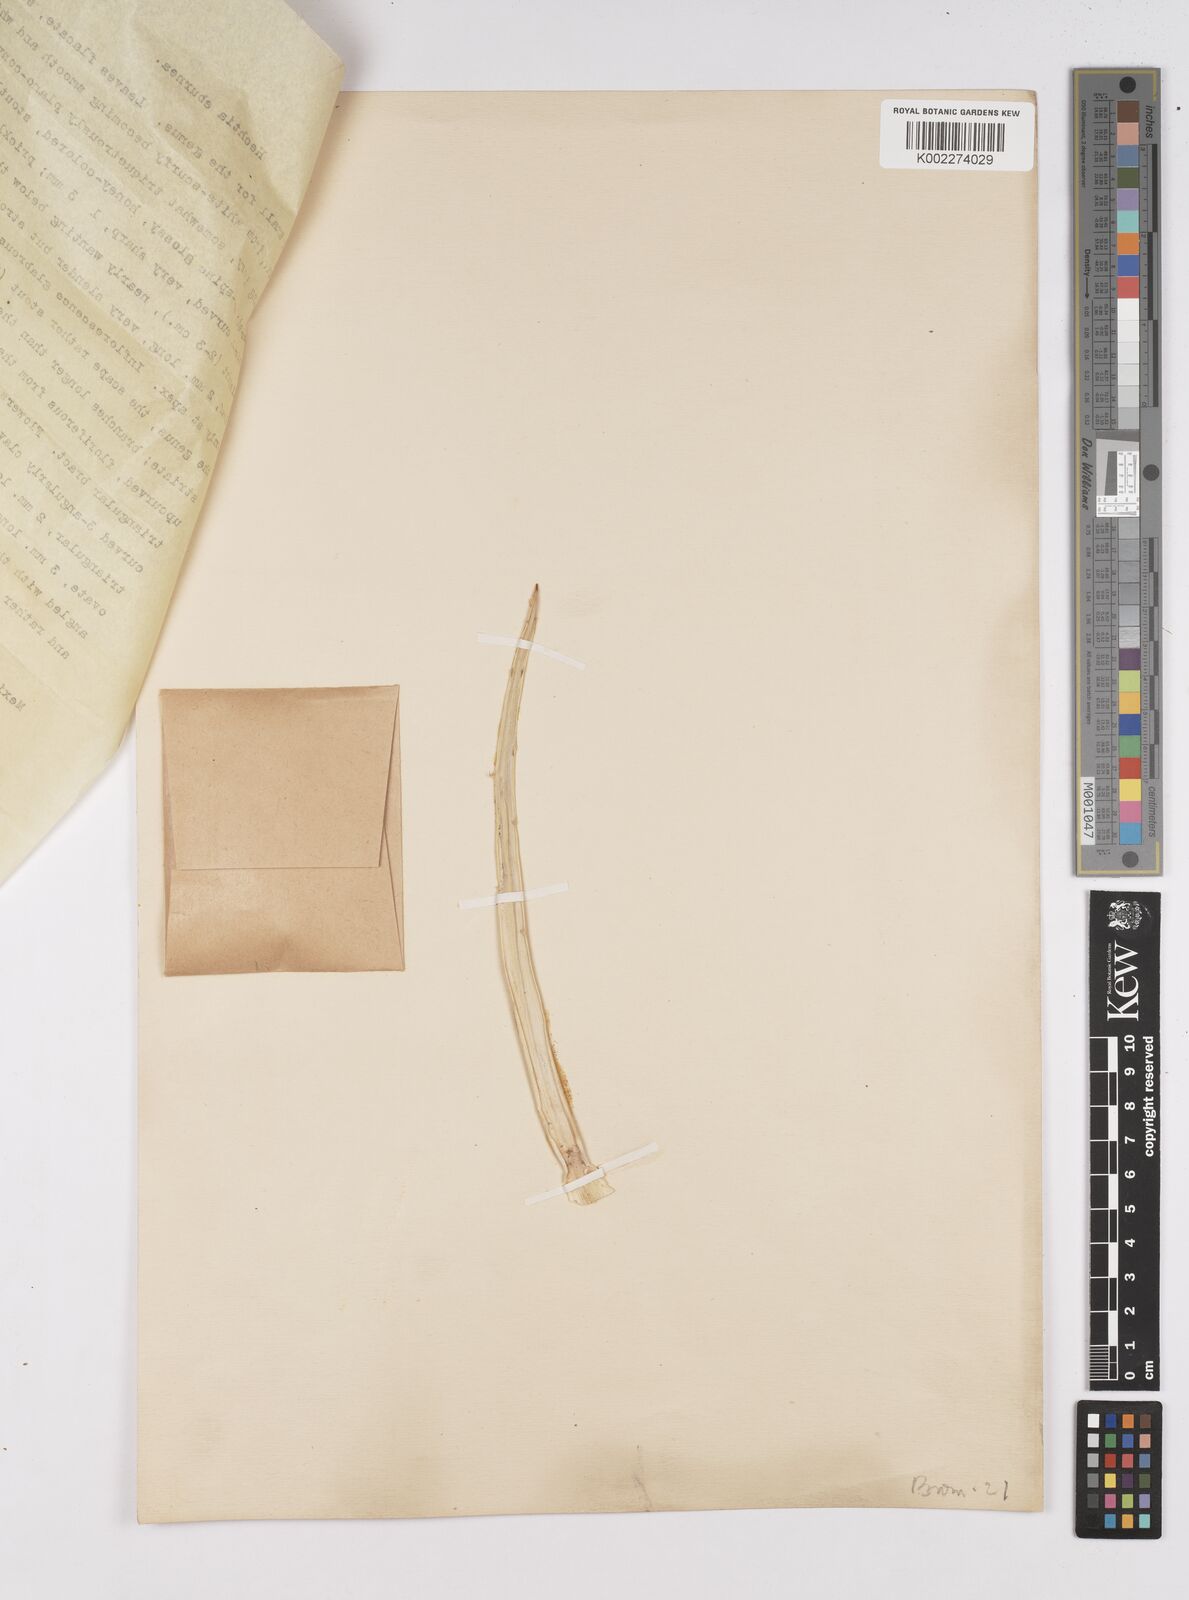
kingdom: Plantae
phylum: Tracheophyta
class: Liliopsida
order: Poales
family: Bromeliaceae
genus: Hechtia
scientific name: Hechtia podantha
